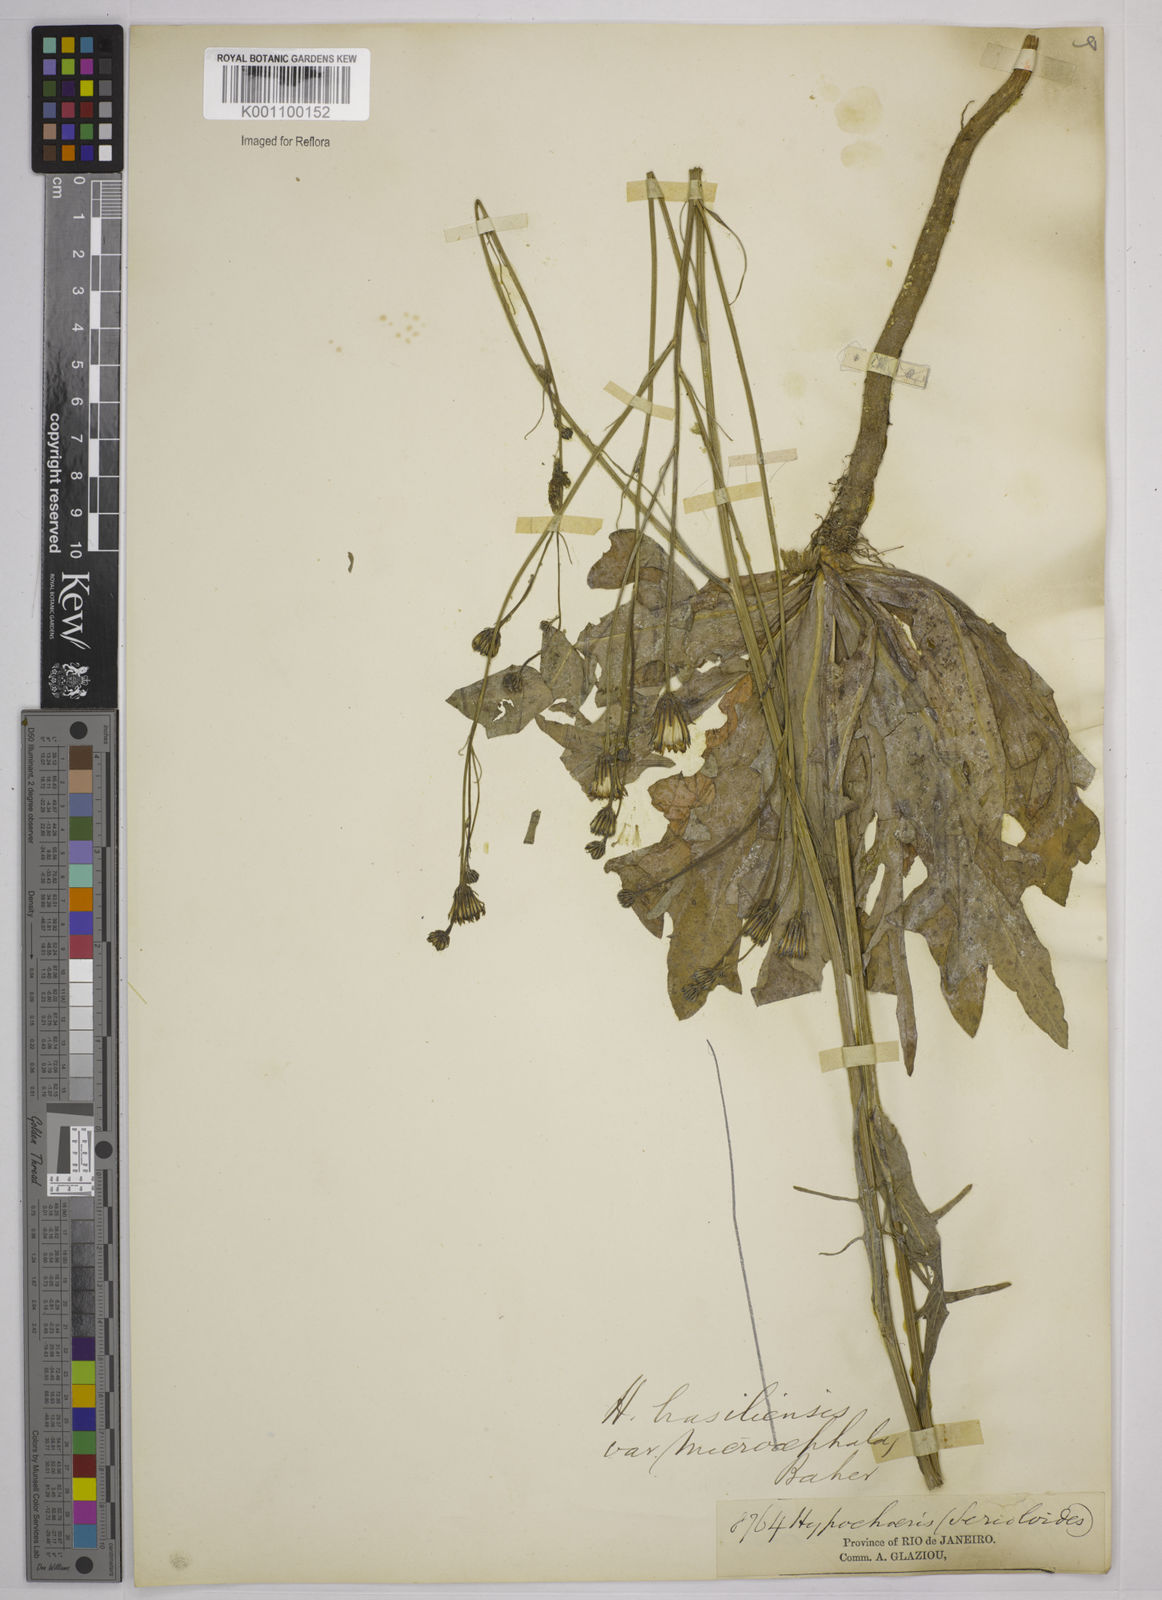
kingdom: Plantae
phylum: Tracheophyta
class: Magnoliopsida
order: Asterales
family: Asteraceae
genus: Hypochaeris
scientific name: Hypochaeris microcephala
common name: White flatweed
